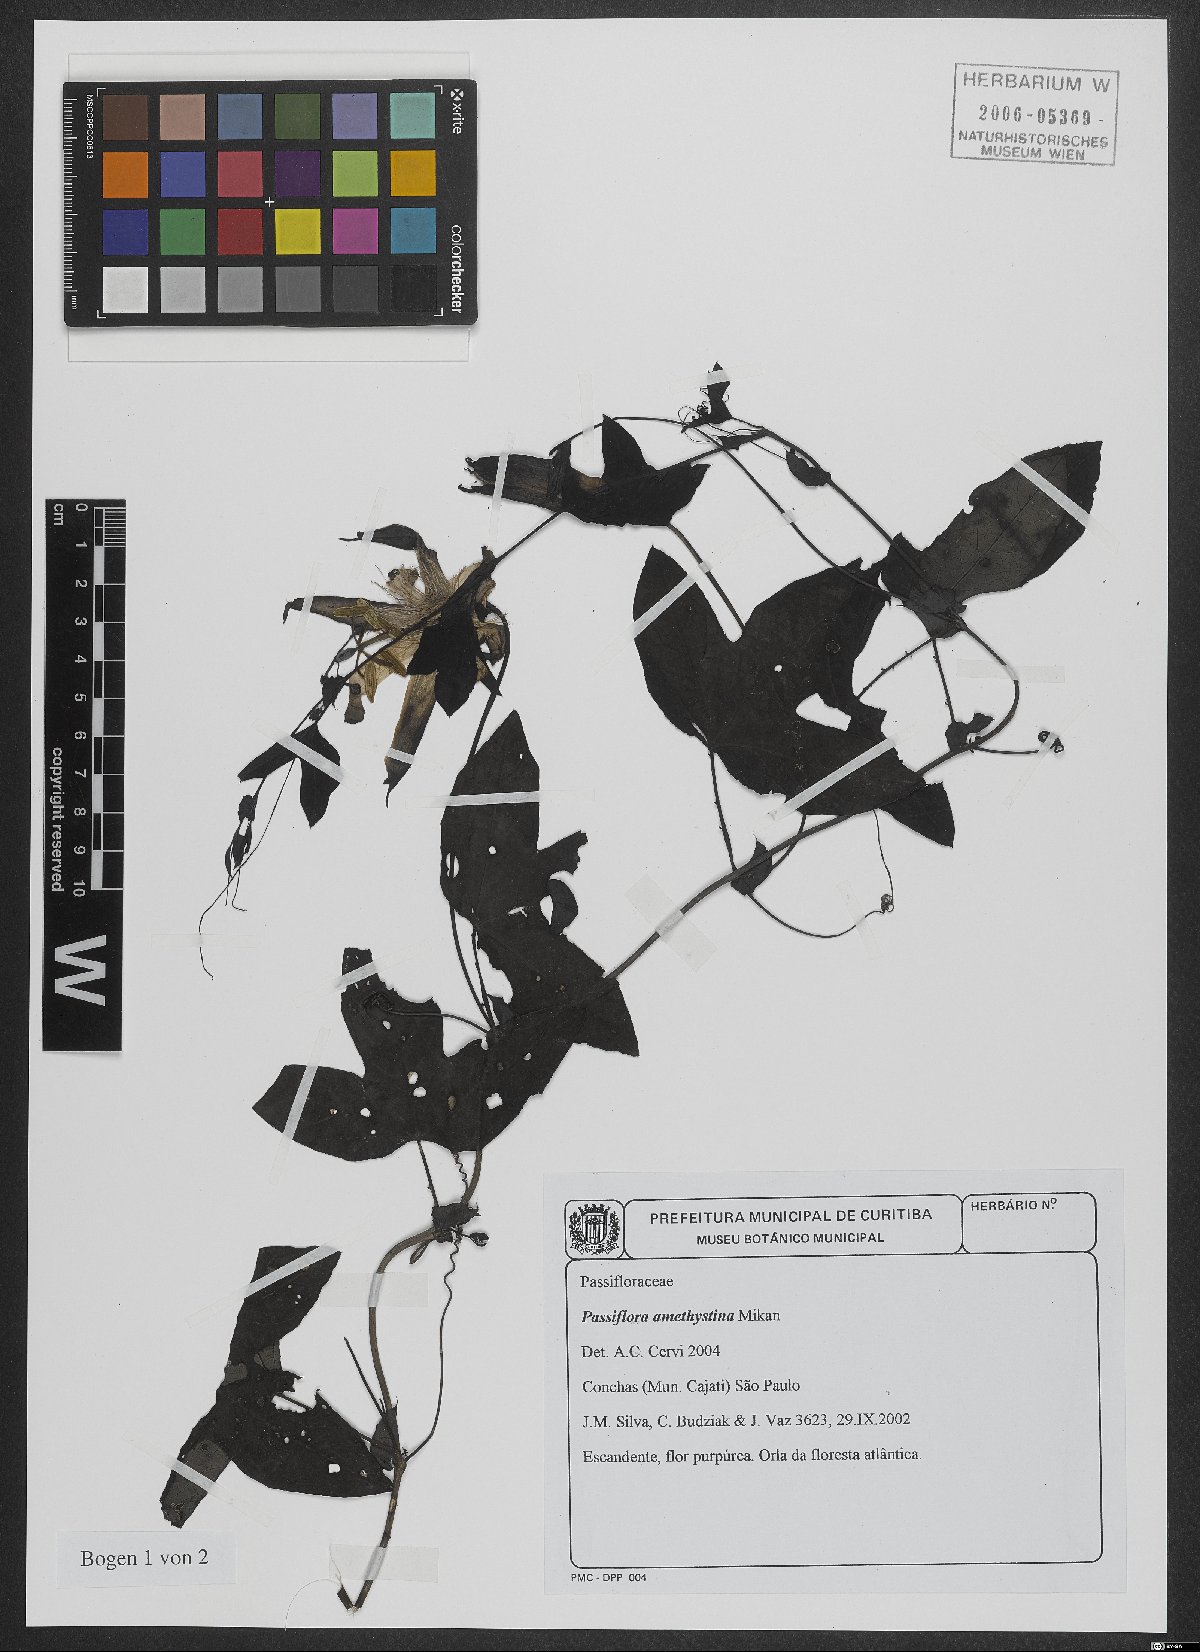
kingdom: Plantae
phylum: Tracheophyta
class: Magnoliopsida
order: Malpighiales
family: Passifloraceae
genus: Passiflora
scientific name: Passiflora amethystina
